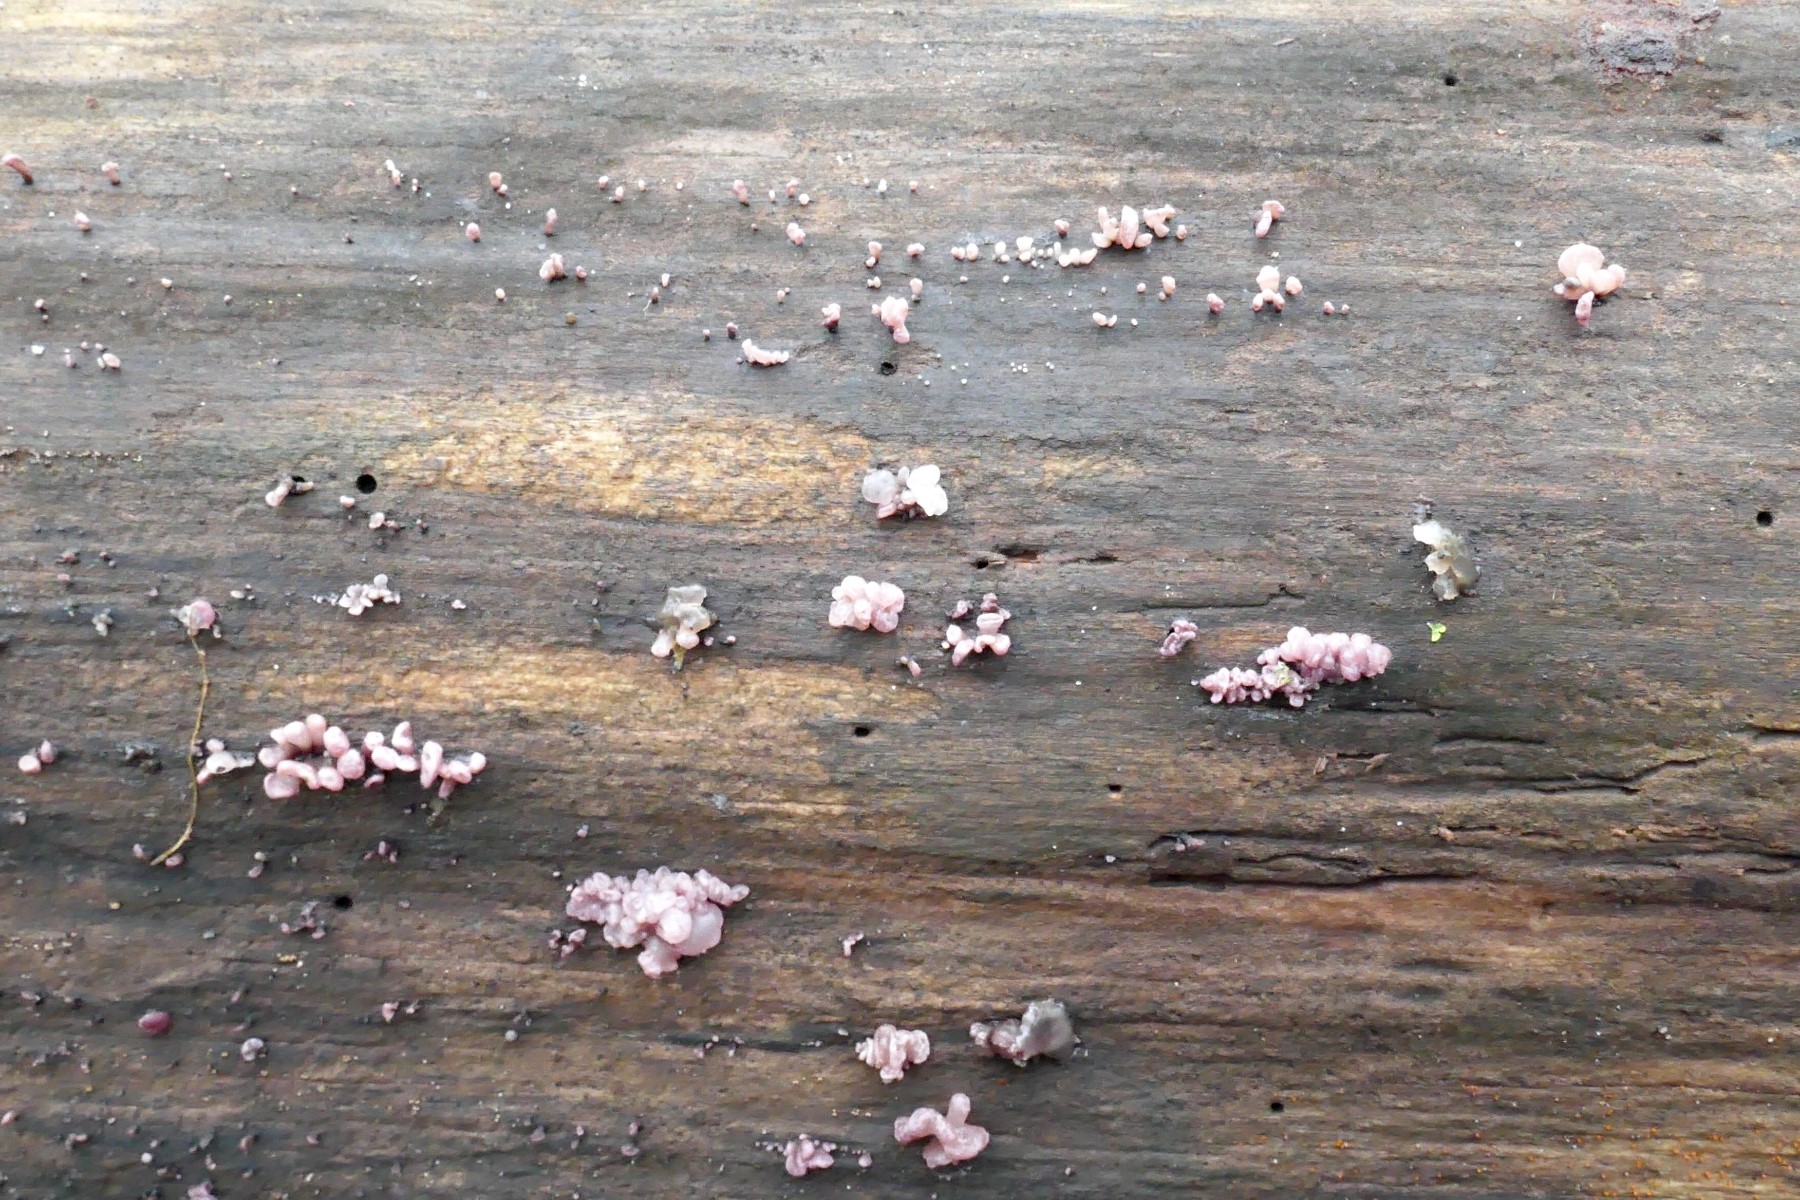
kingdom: Fungi
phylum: Ascomycota
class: Leotiomycetes
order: Helotiales
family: Gelatinodiscaceae
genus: Ascocoryne
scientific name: Ascocoryne sarcoides
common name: rødlilla sejskive
